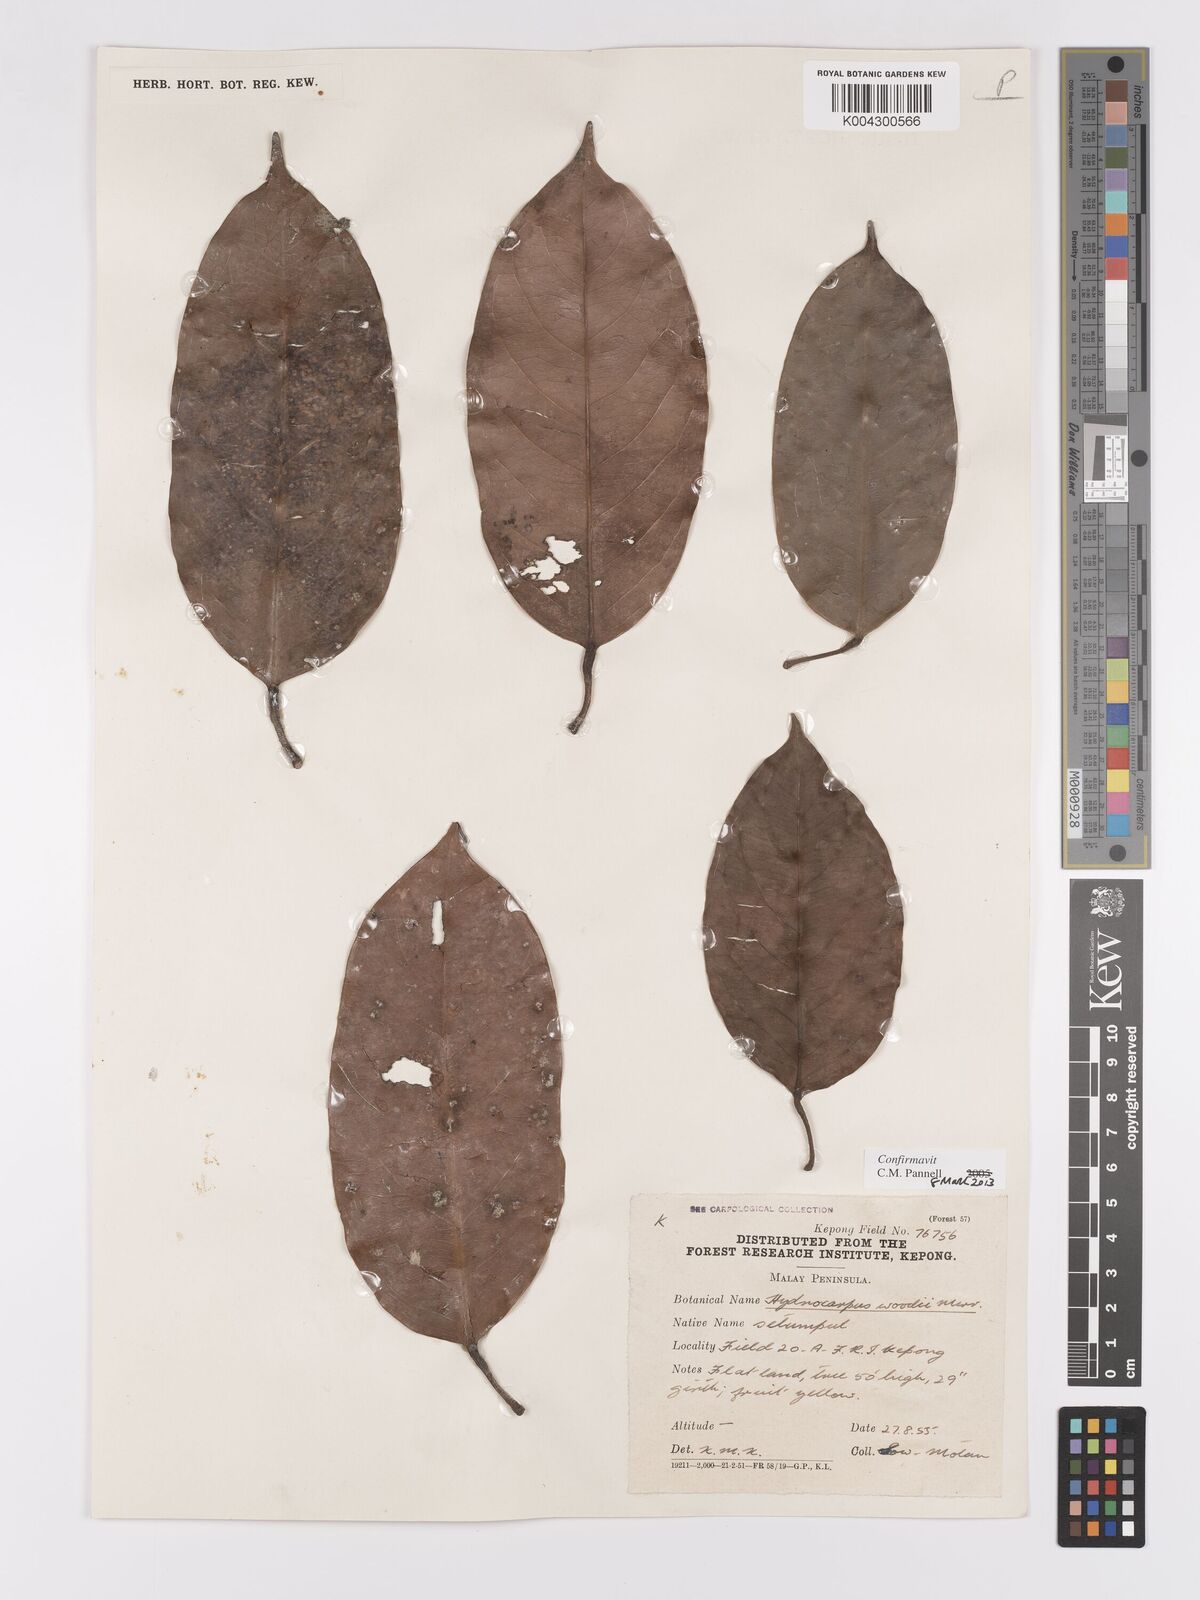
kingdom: Plantae
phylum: Tracheophyta
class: Magnoliopsida
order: Malpighiales
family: Achariaceae
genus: Hydnocarpus
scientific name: Hydnocarpus woodii
